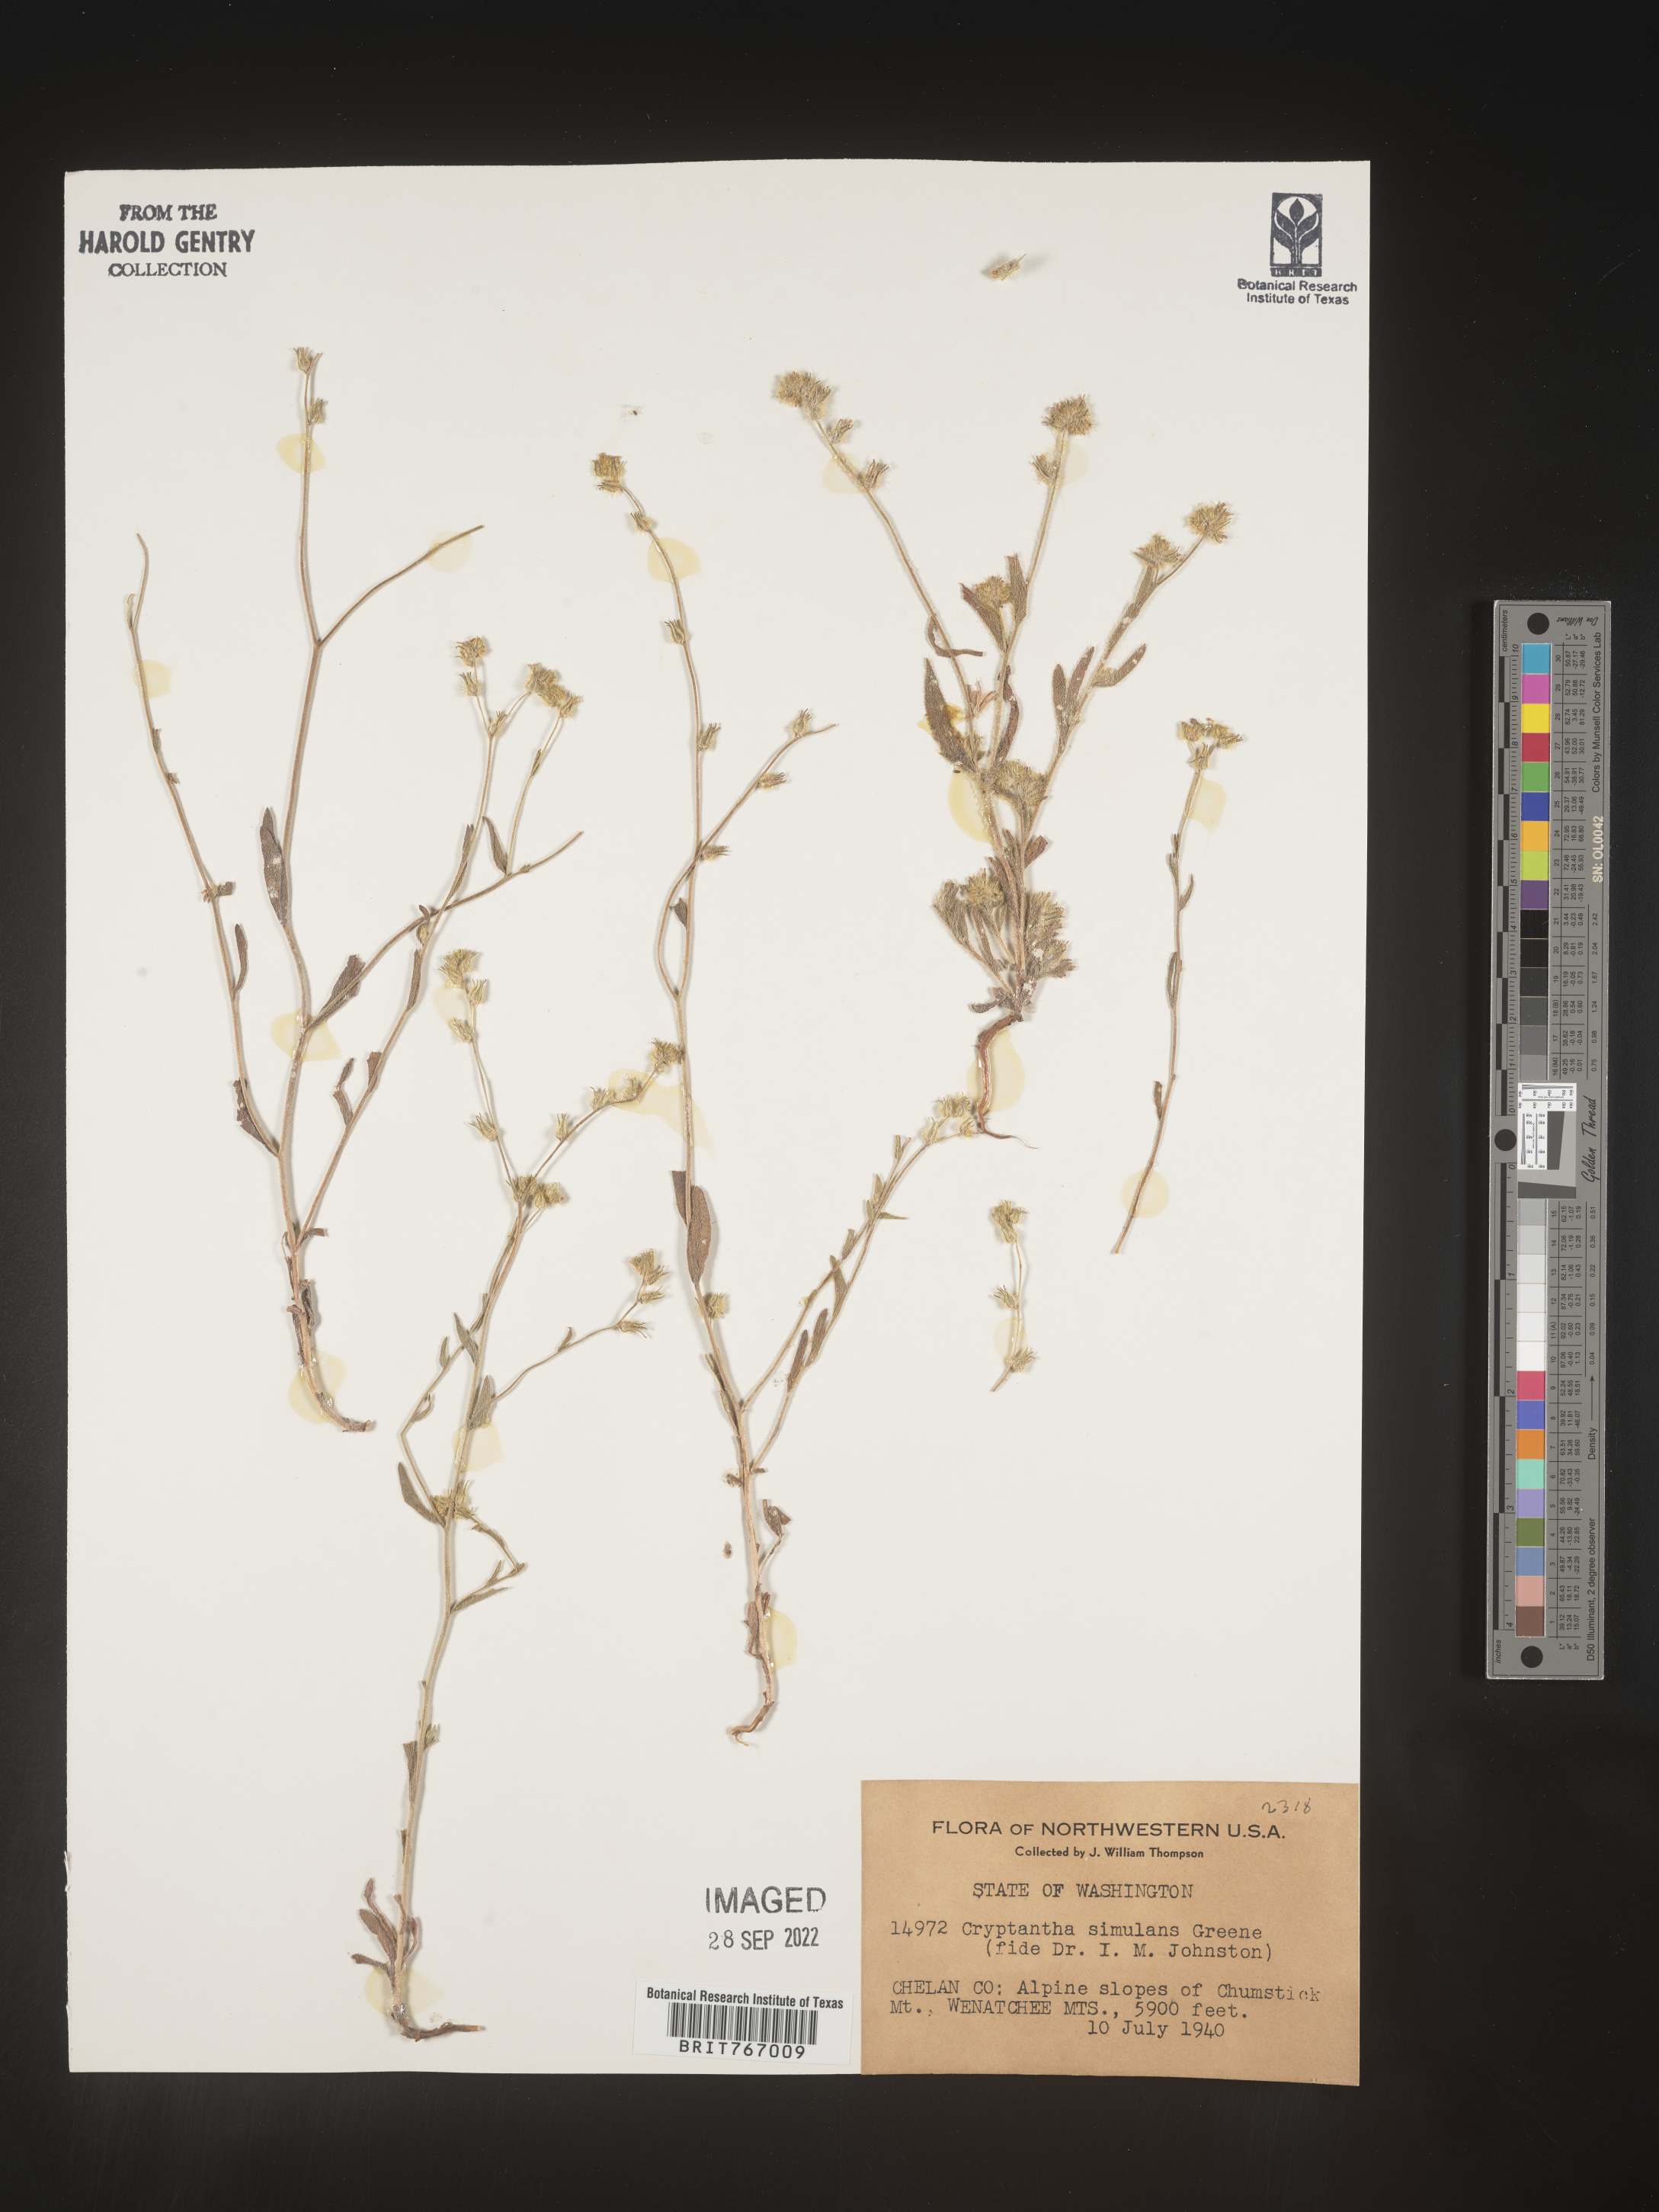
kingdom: Plantae
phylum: Tracheophyta
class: Magnoliopsida
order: Boraginales
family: Boraginaceae
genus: Cryptantha
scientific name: Cryptantha
